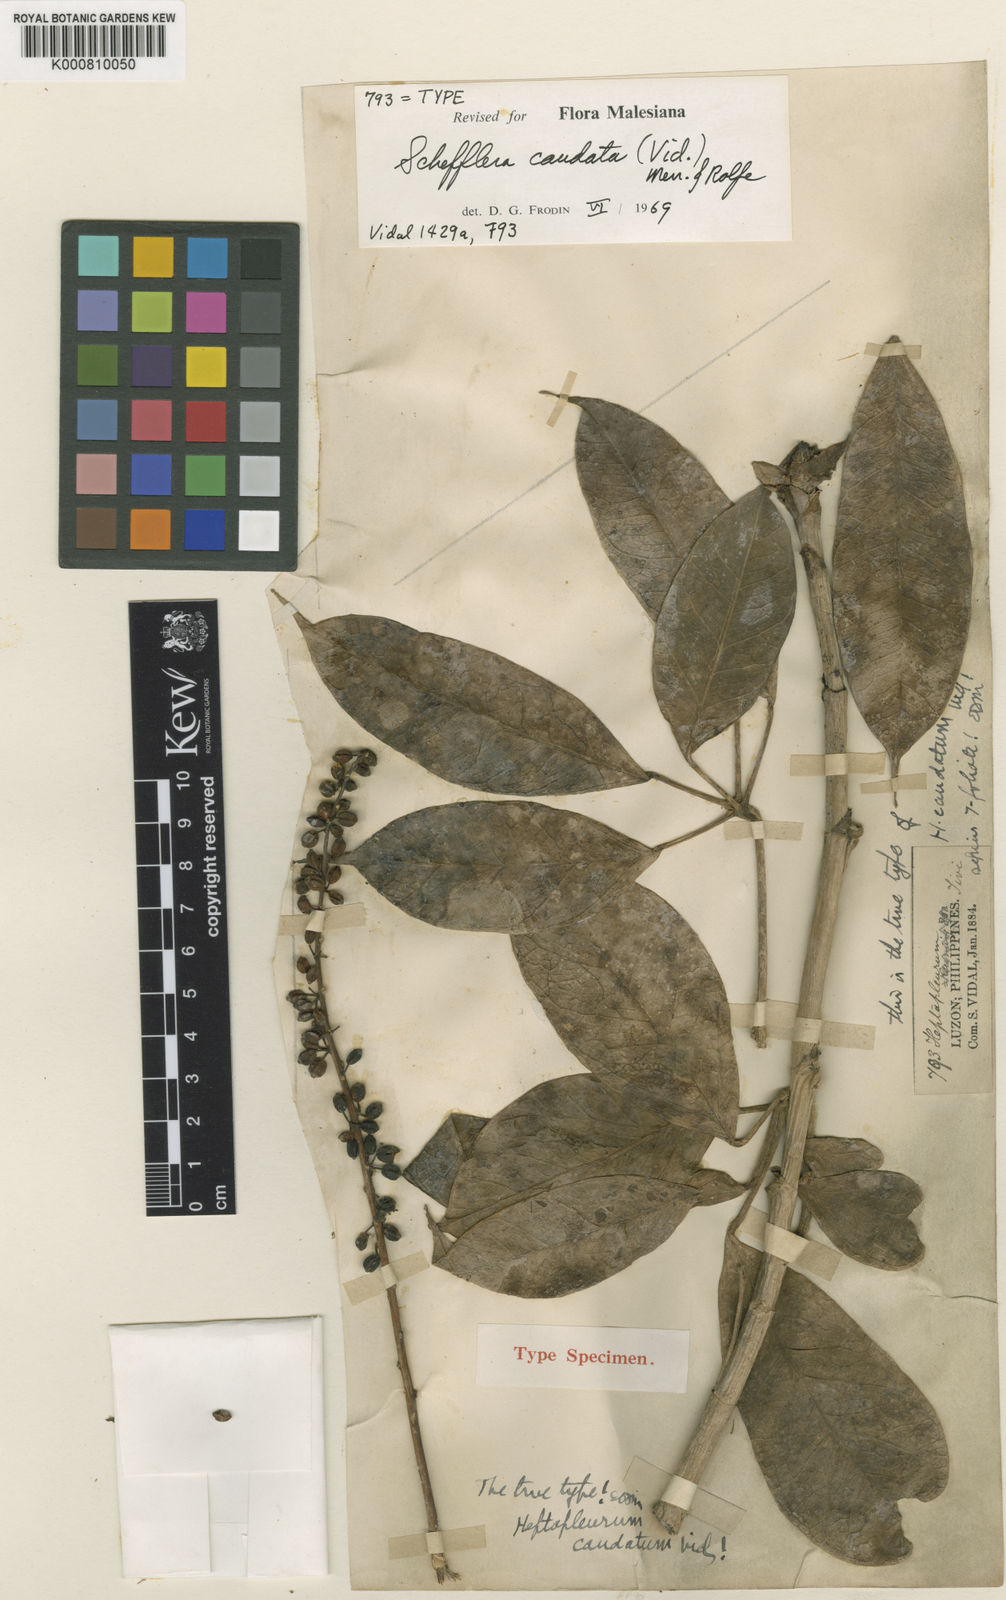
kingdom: Plantae
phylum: Tracheophyta
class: Magnoliopsida
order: Apiales
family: Araliaceae
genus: Heptapleurum
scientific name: Heptapleurum caudatum
